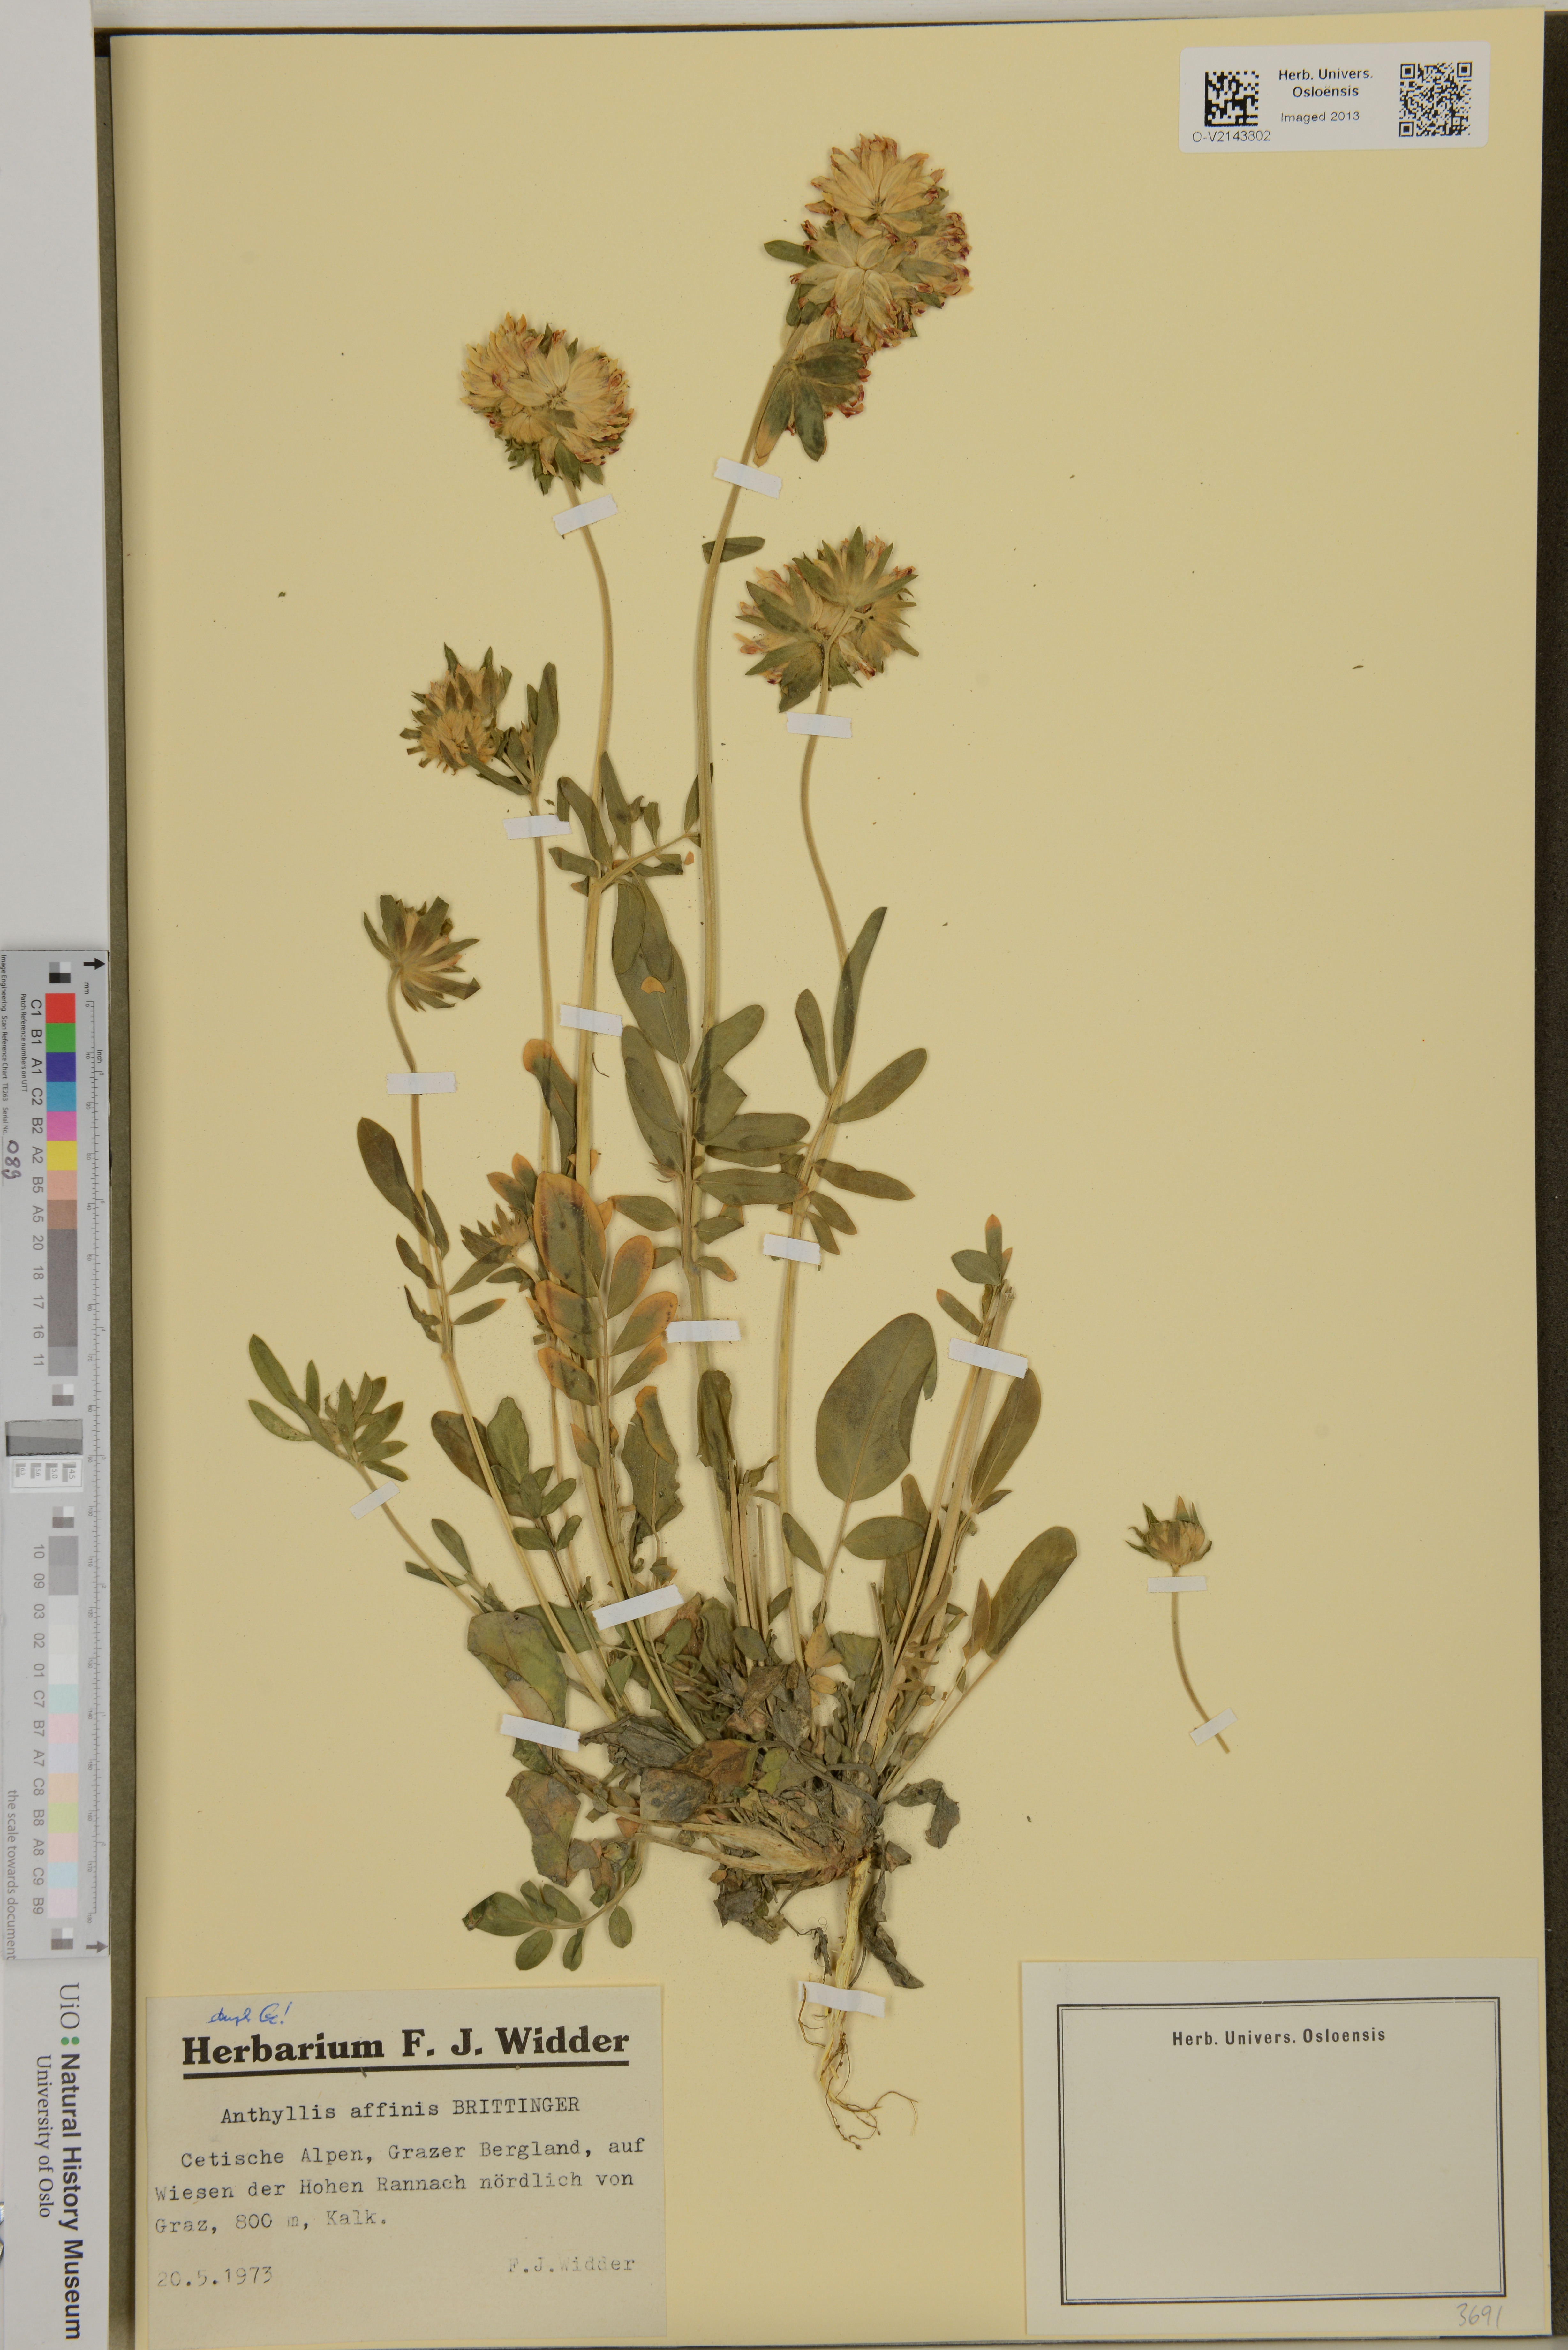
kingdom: Plantae
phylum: Tracheophyta
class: Magnoliopsida
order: Fabales
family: Fabaceae
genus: Anthyllis
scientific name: Anthyllis vulneraria
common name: Kidney vetch
